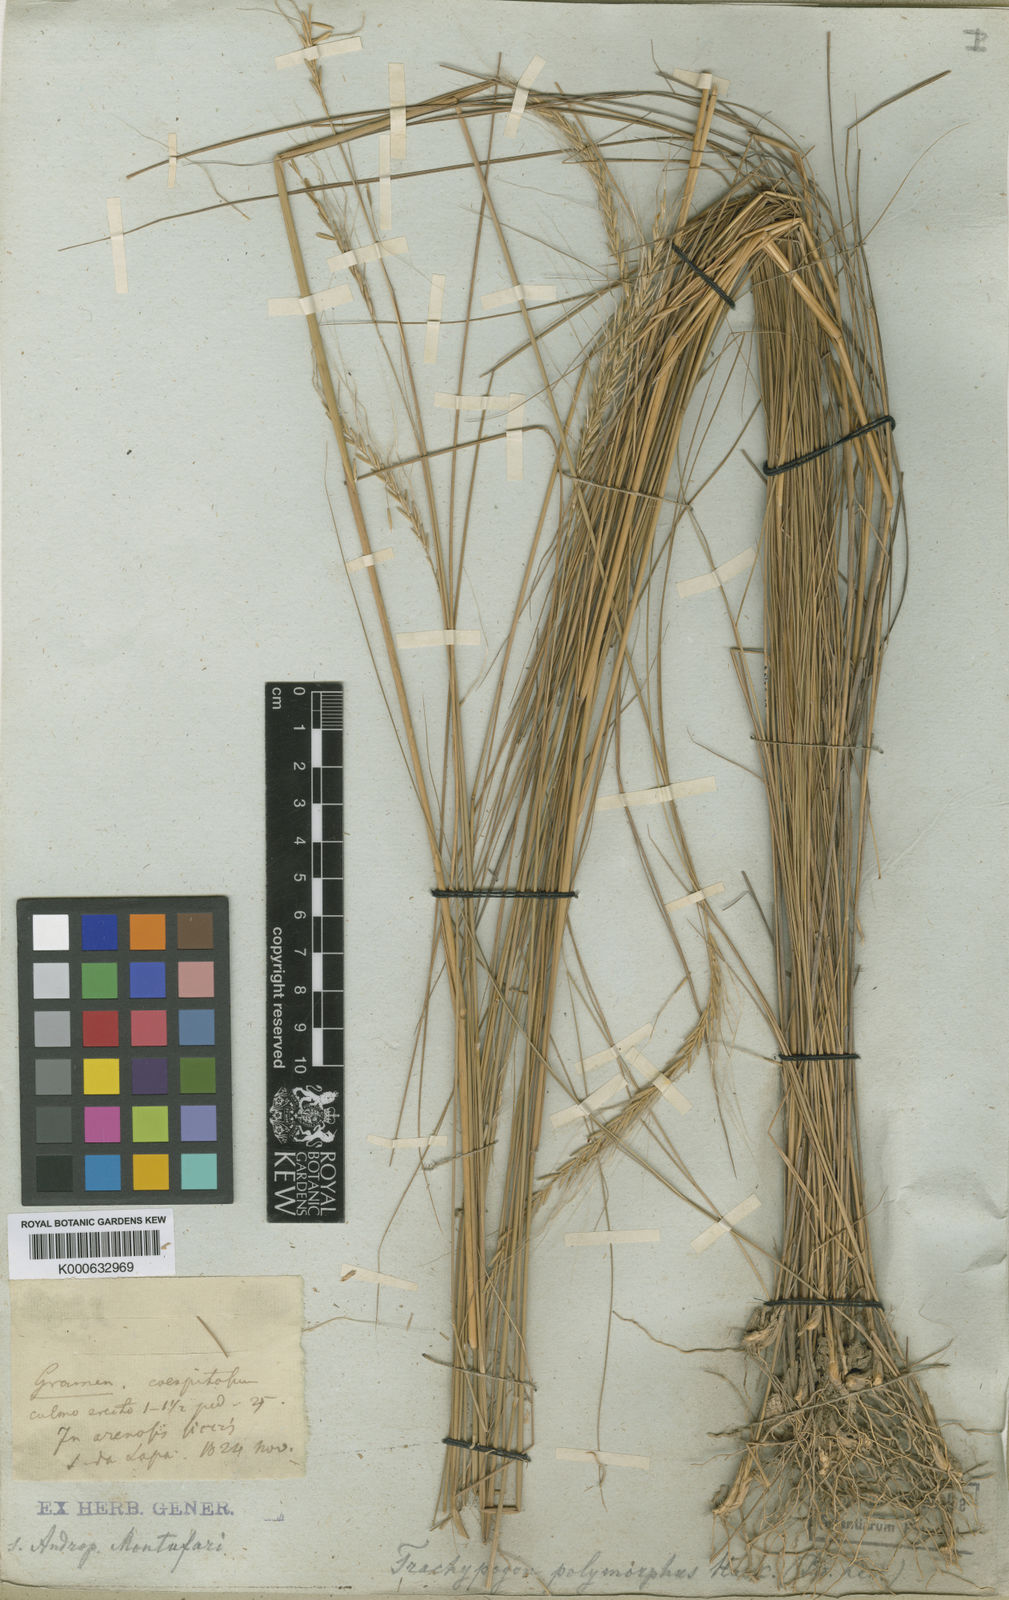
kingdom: Plantae
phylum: Tracheophyta
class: Liliopsida
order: Poales
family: Poaceae
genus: Trachypogon
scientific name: Trachypogon macroglossus
